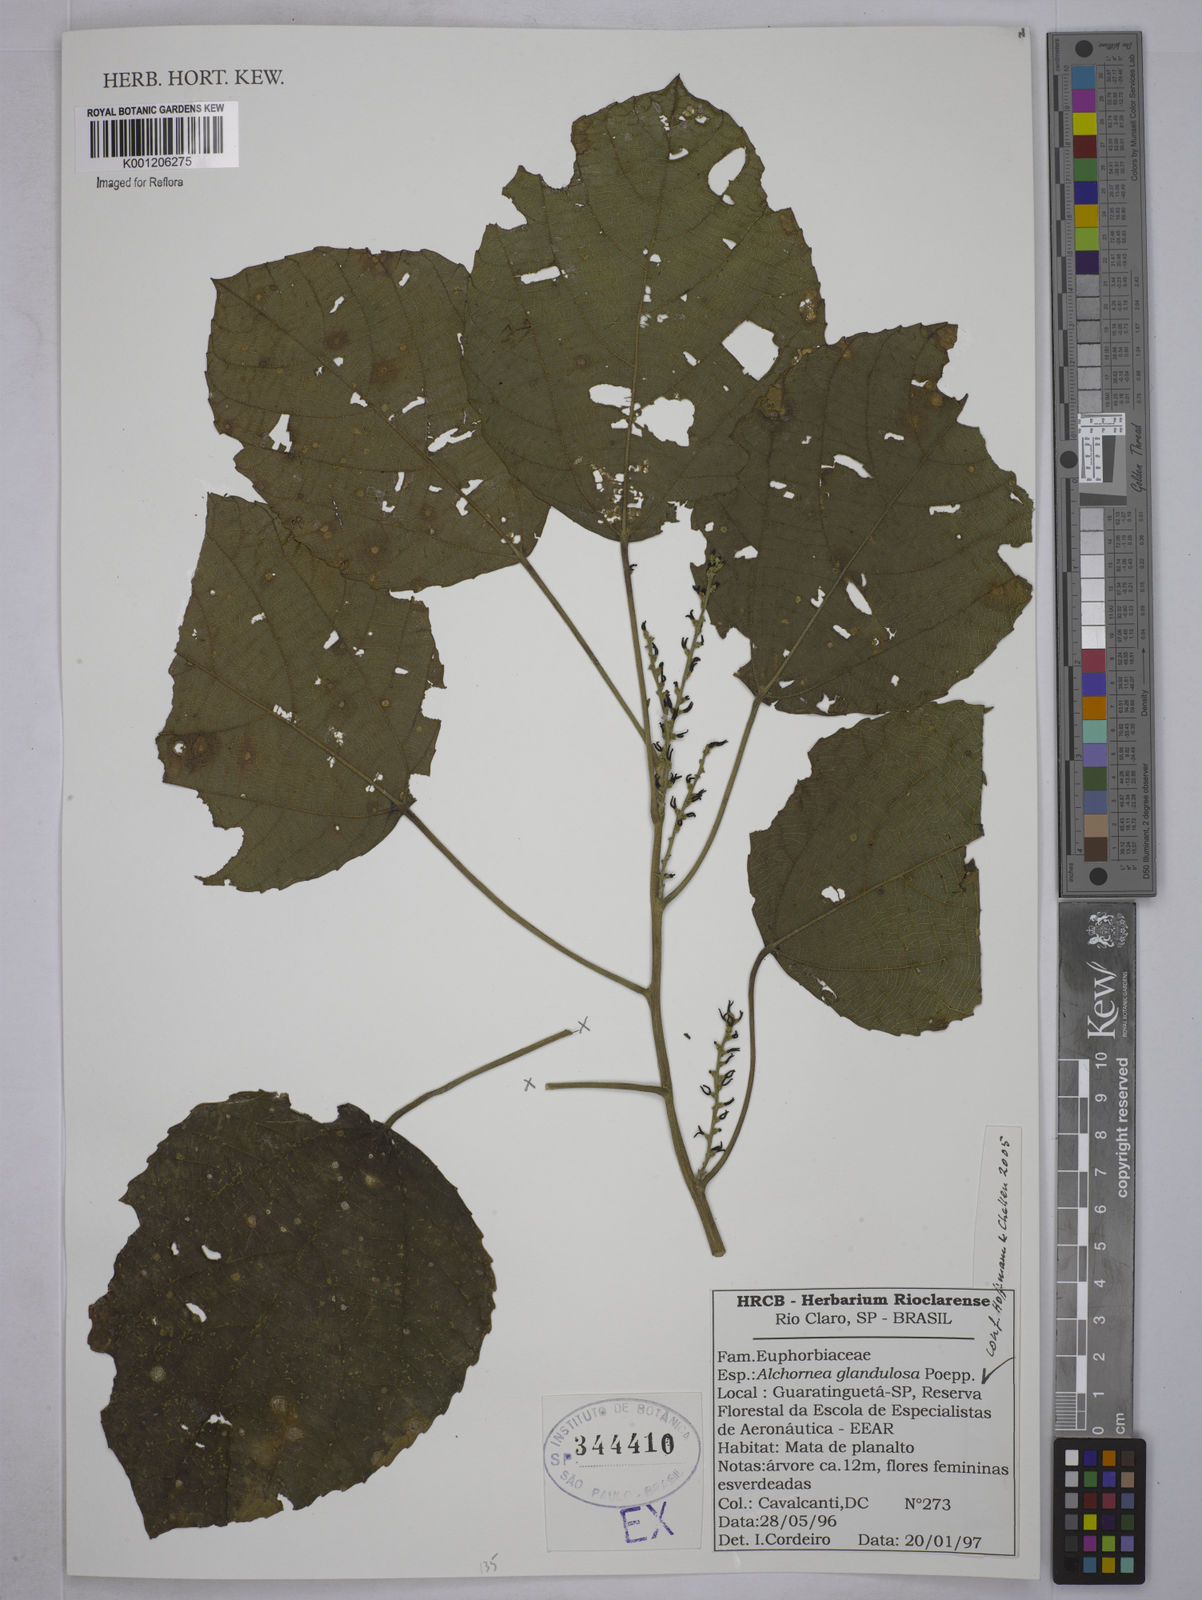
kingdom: Plantae
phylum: Tracheophyta
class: Magnoliopsida
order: Malpighiales
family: Euphorbiaceae
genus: Alchornea
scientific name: Alchornea glandulosa
